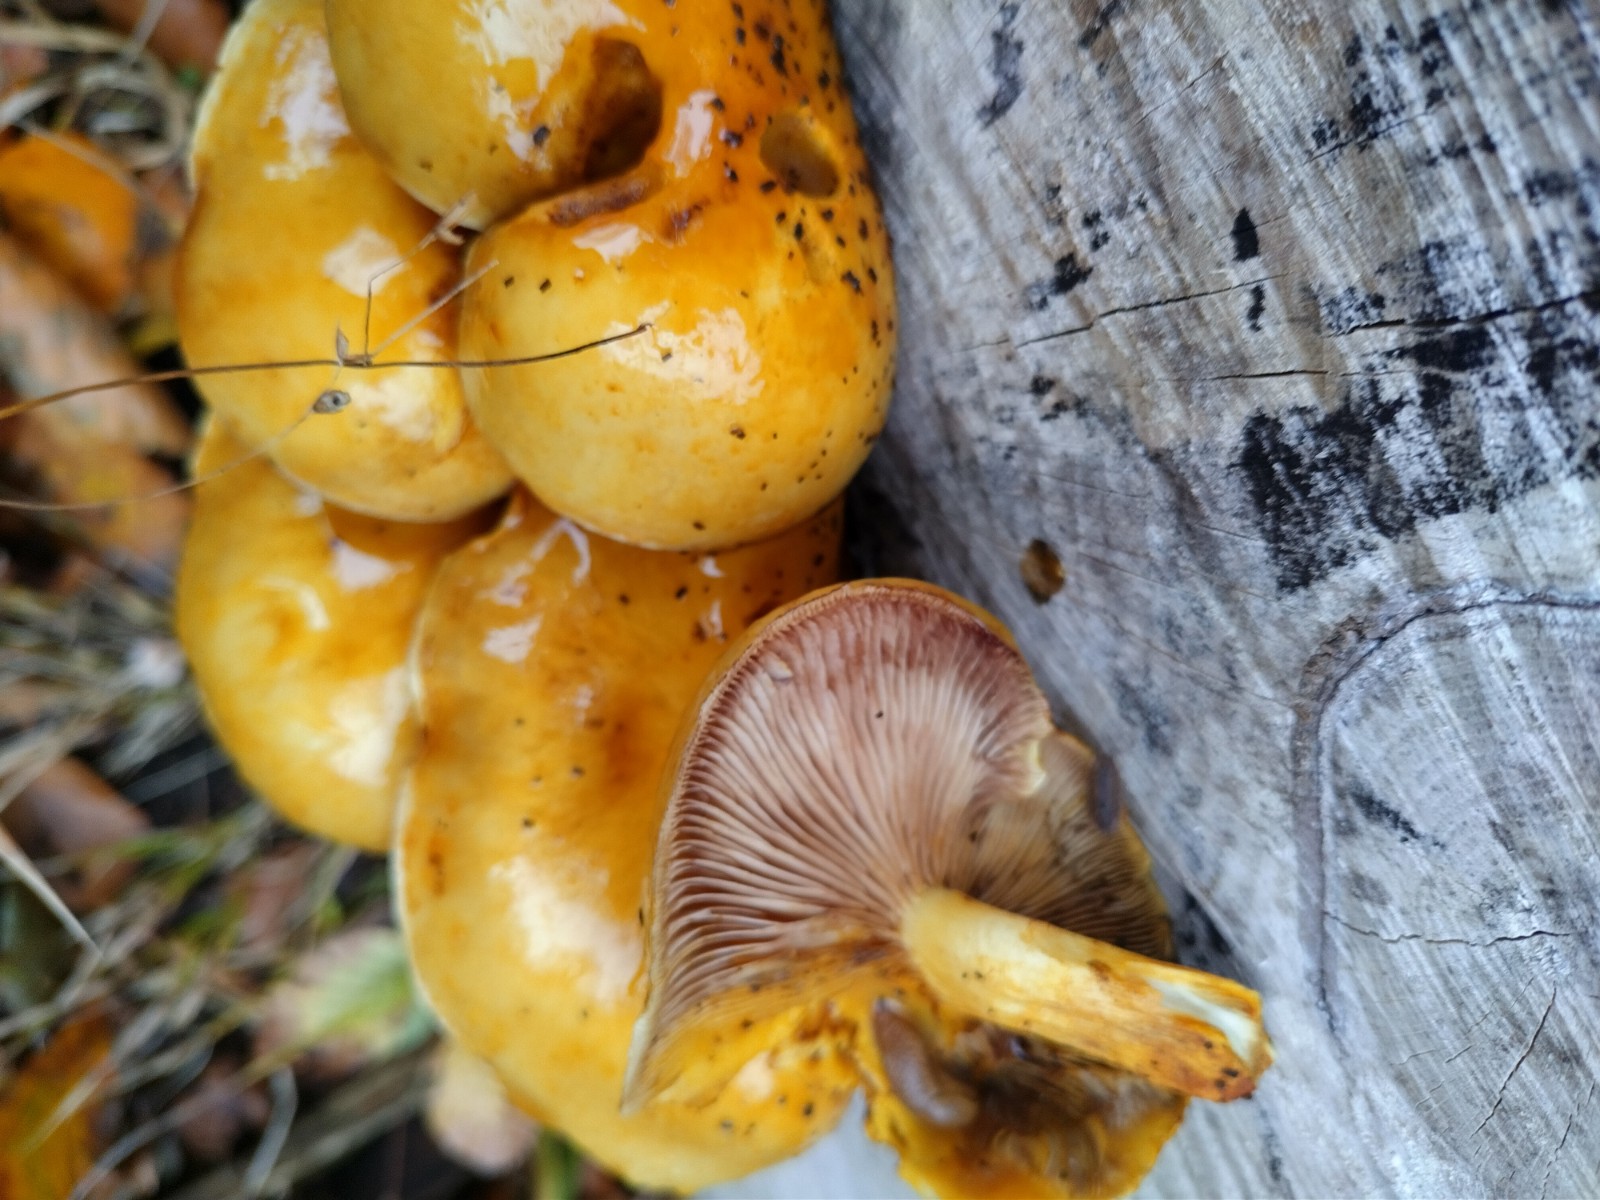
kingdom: Fungi
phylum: Basidiomycota
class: Agaricomycetes
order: Agaricales
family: Strophariaceae
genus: Pholiota
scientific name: Pholiota adiposa
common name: højtsiddende skælhat
